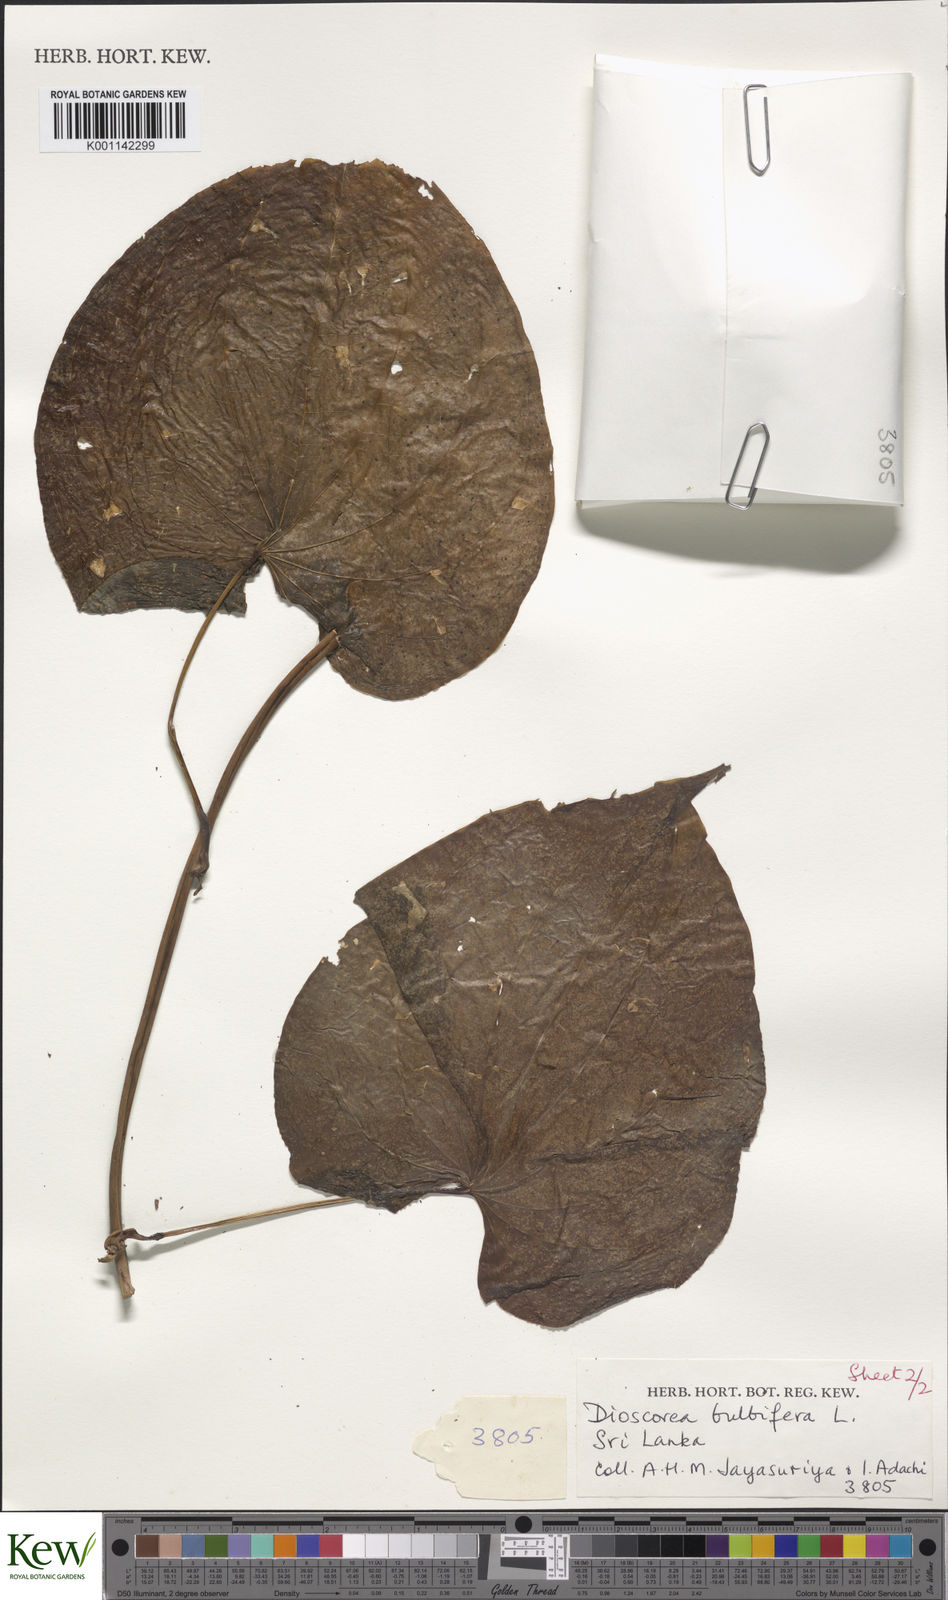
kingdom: Plantae
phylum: Tracheophyta
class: Liliopsida
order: Dioscoreales
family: Dioscoreaceae
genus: Dioscorea
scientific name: Dioscorea bulbifera
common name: Air yam
